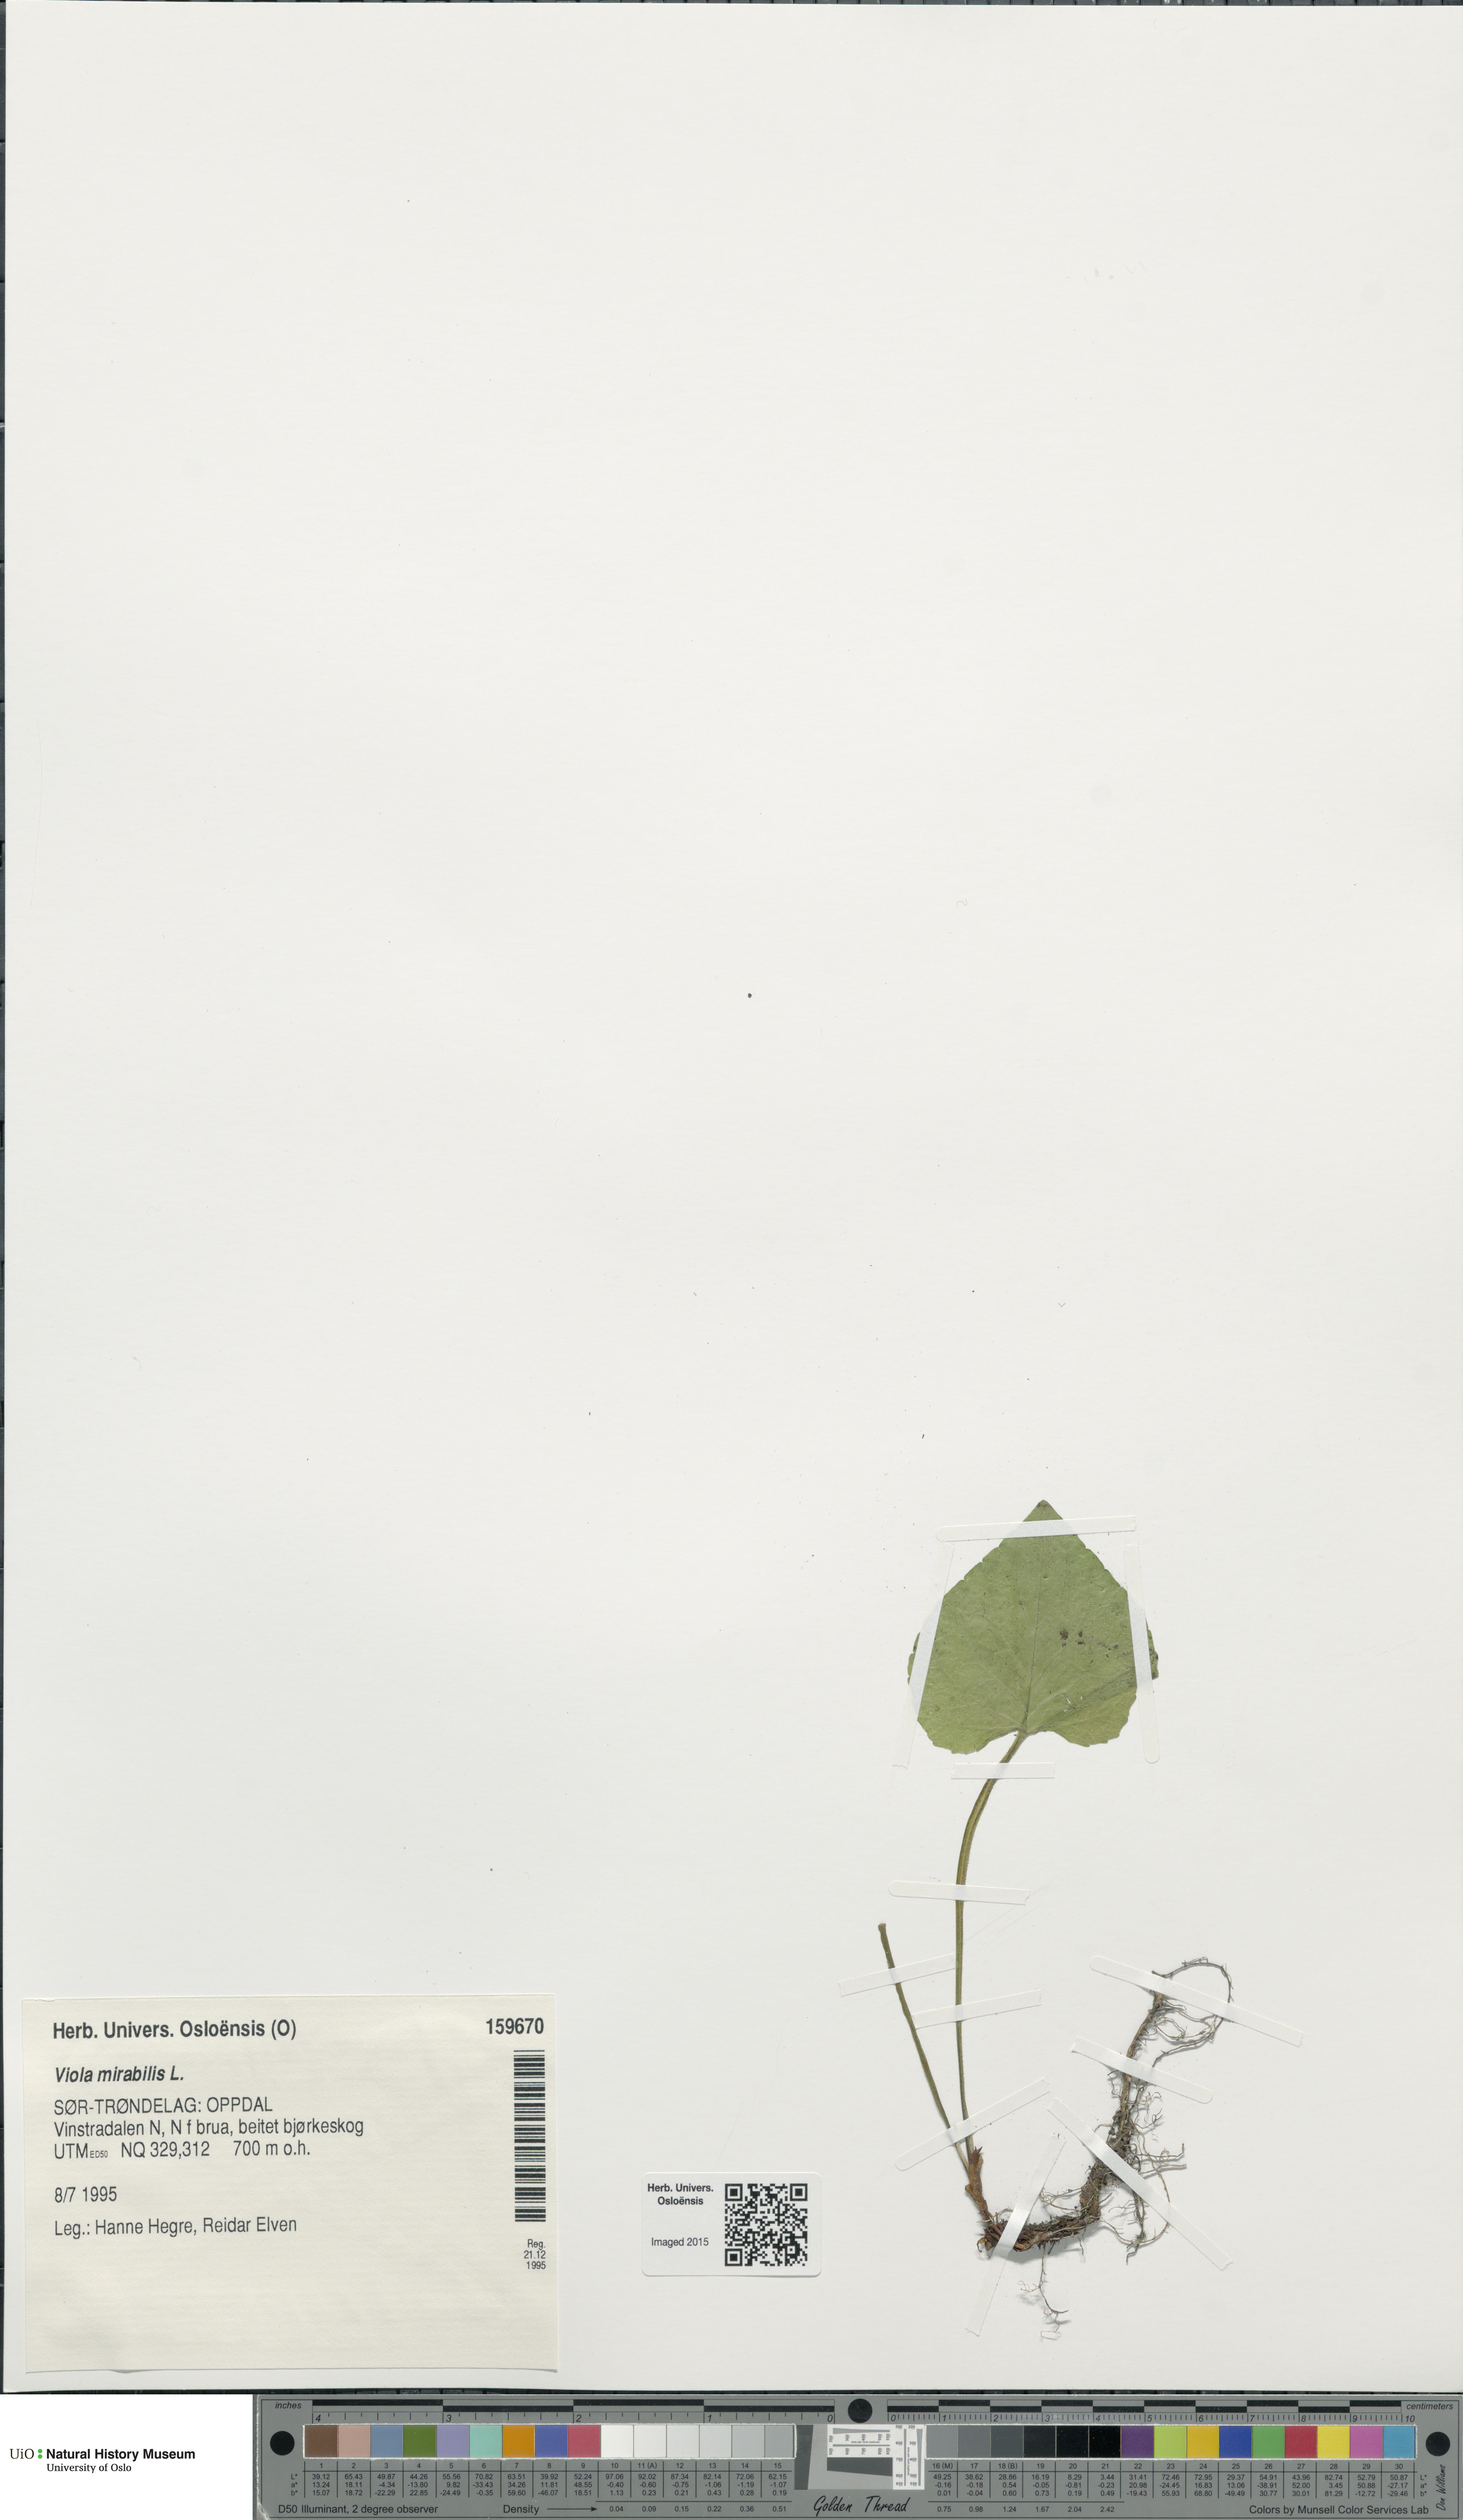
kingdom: Plantae
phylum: Tracheophyta
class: Magnoliopsida
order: Malpighiales
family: Violaceae
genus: Viola
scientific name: Viola mirabilis
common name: Wonder violet
